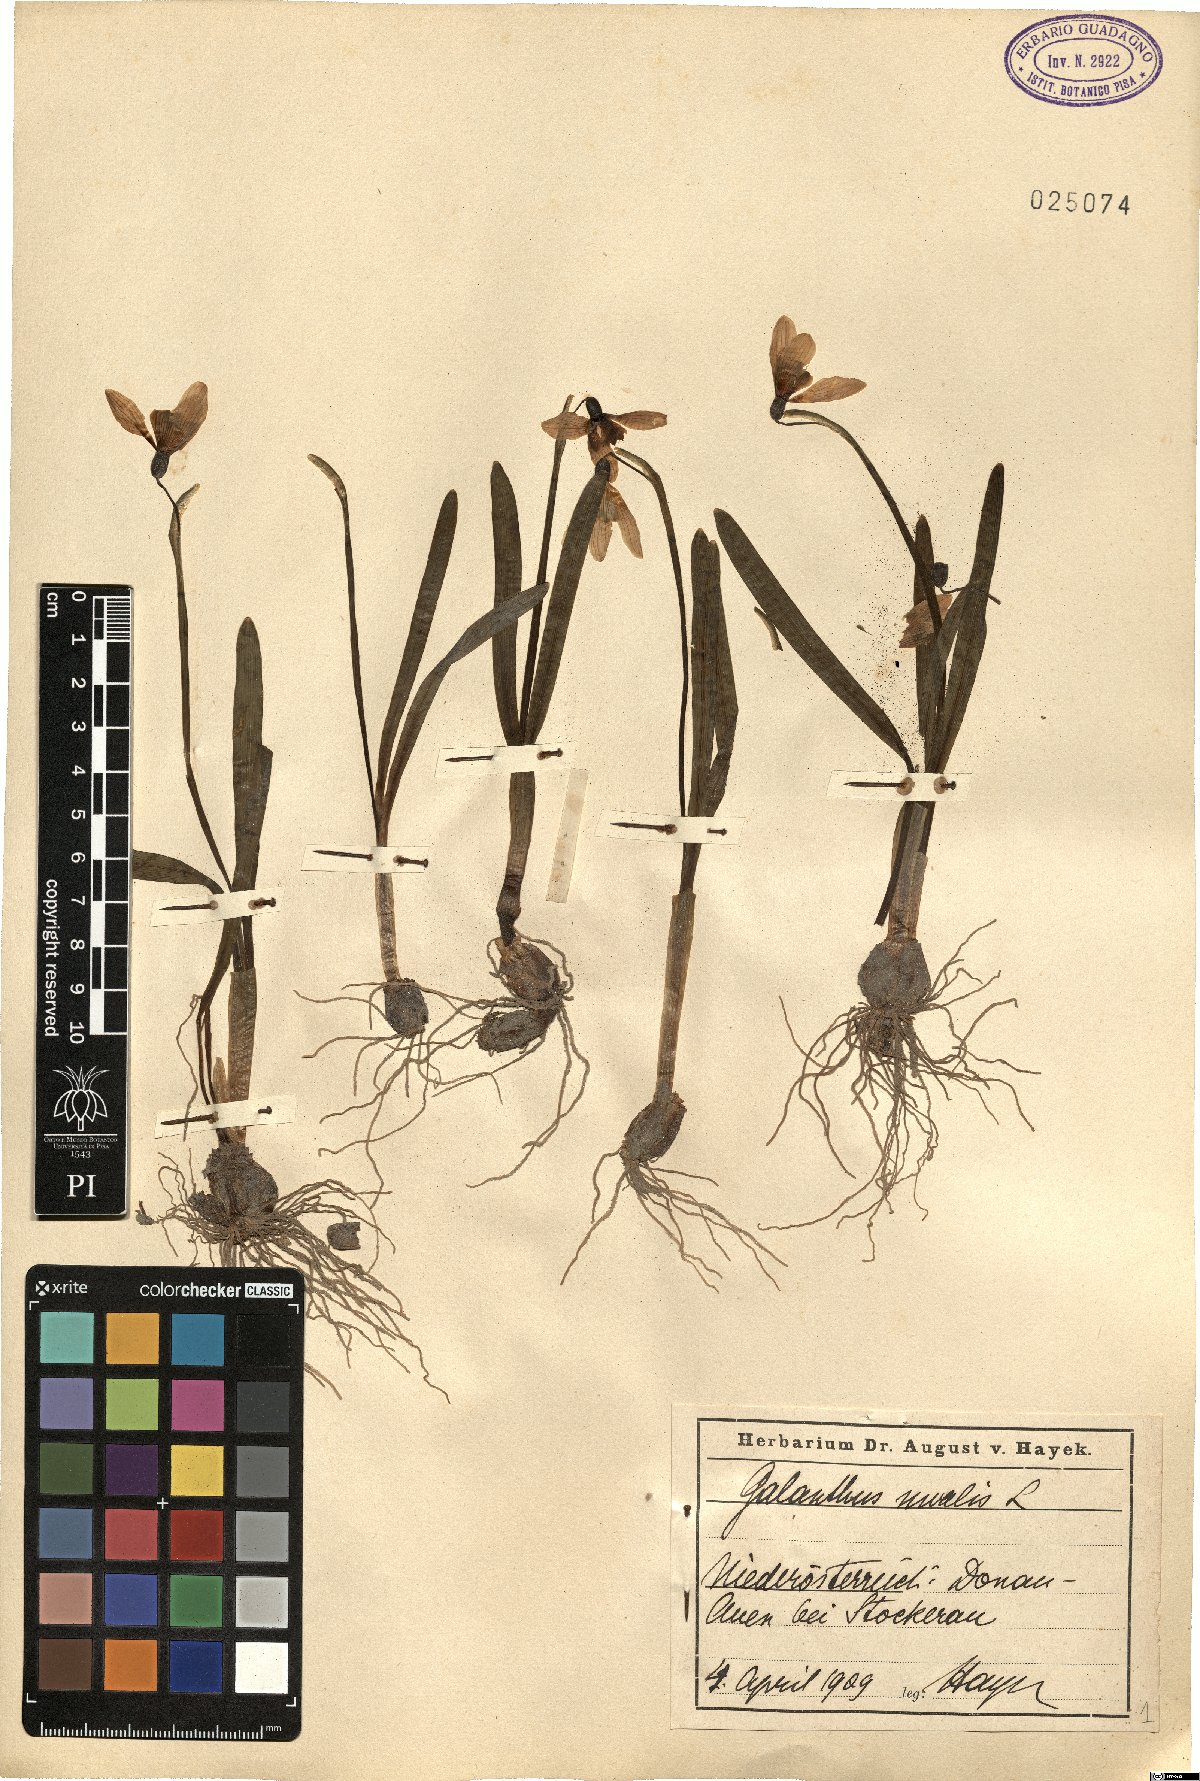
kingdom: Plantae
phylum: Tracheophyta
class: Liliopsida
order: Asparagales
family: Amaryllidaceae
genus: Galanthus
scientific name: Galanthus nivalis
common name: Snowdrop
